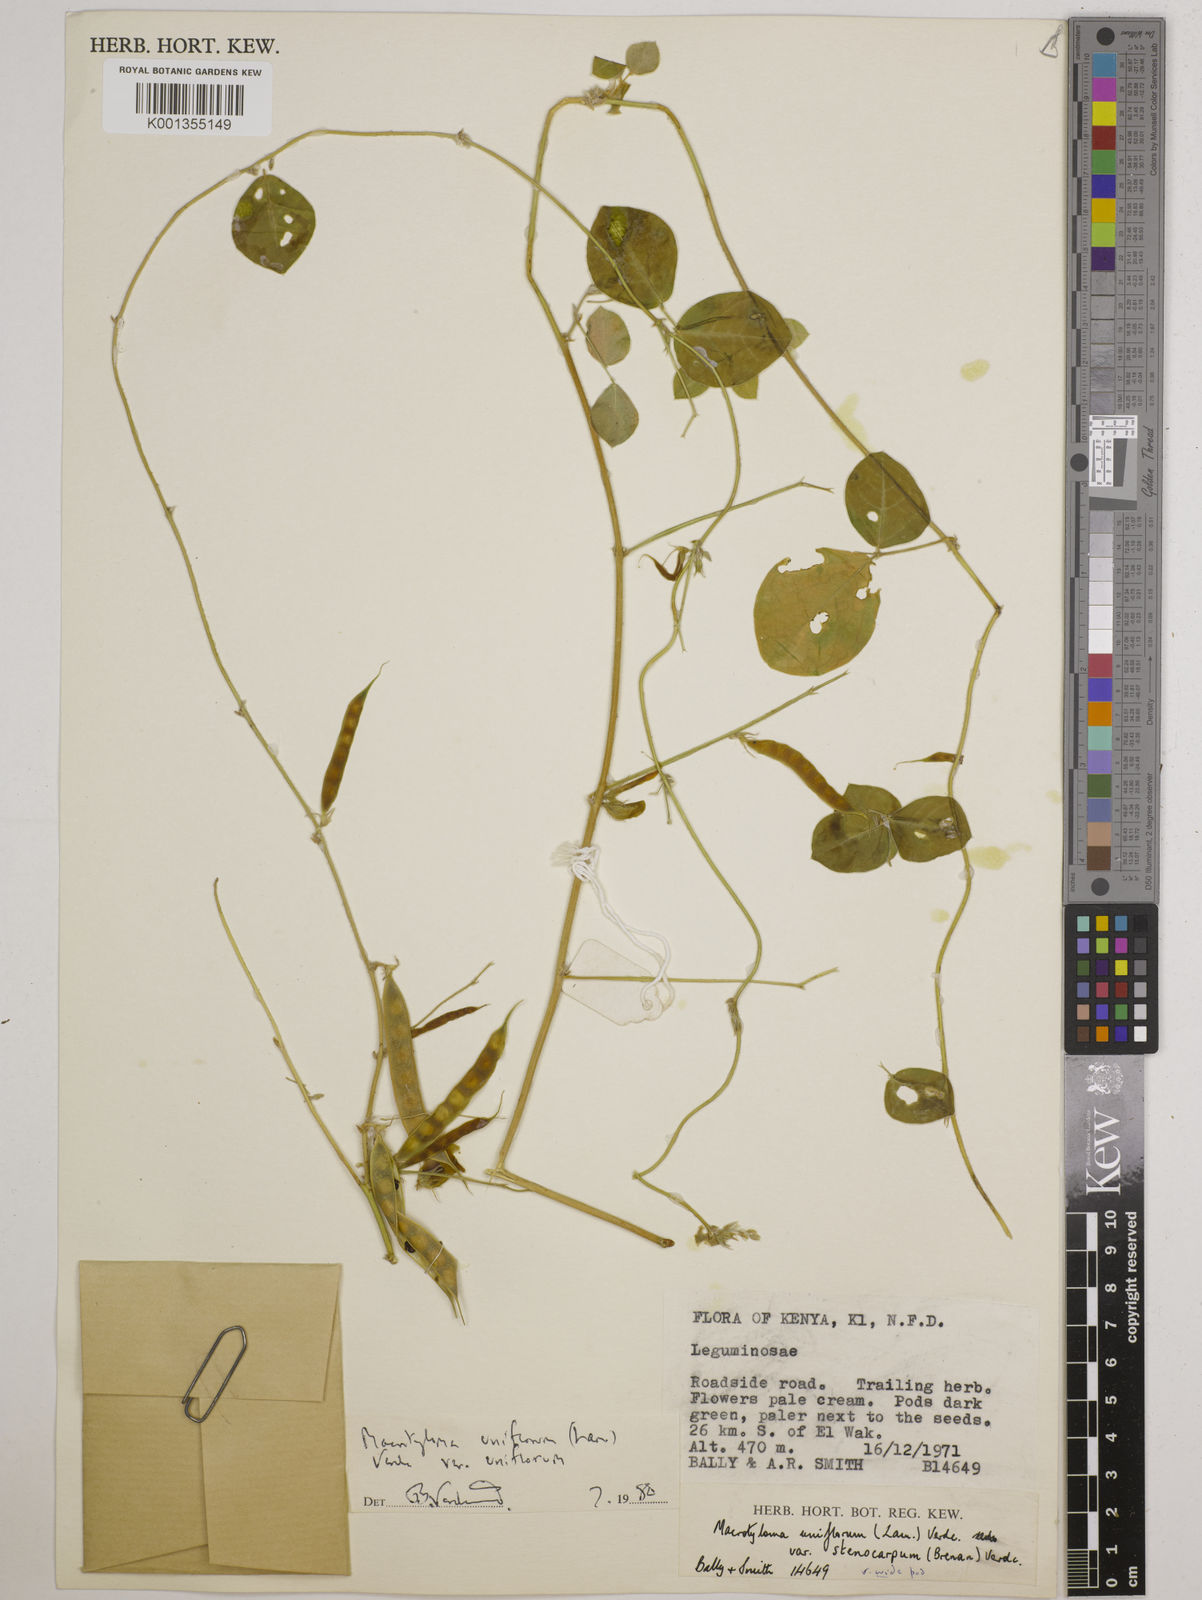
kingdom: Plantae
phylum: Tracheophyta
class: Magnoliopsida
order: Fabales
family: Fabaceae
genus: Macrotyloma
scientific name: Macrotyloma uniflorum
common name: Horse gram
